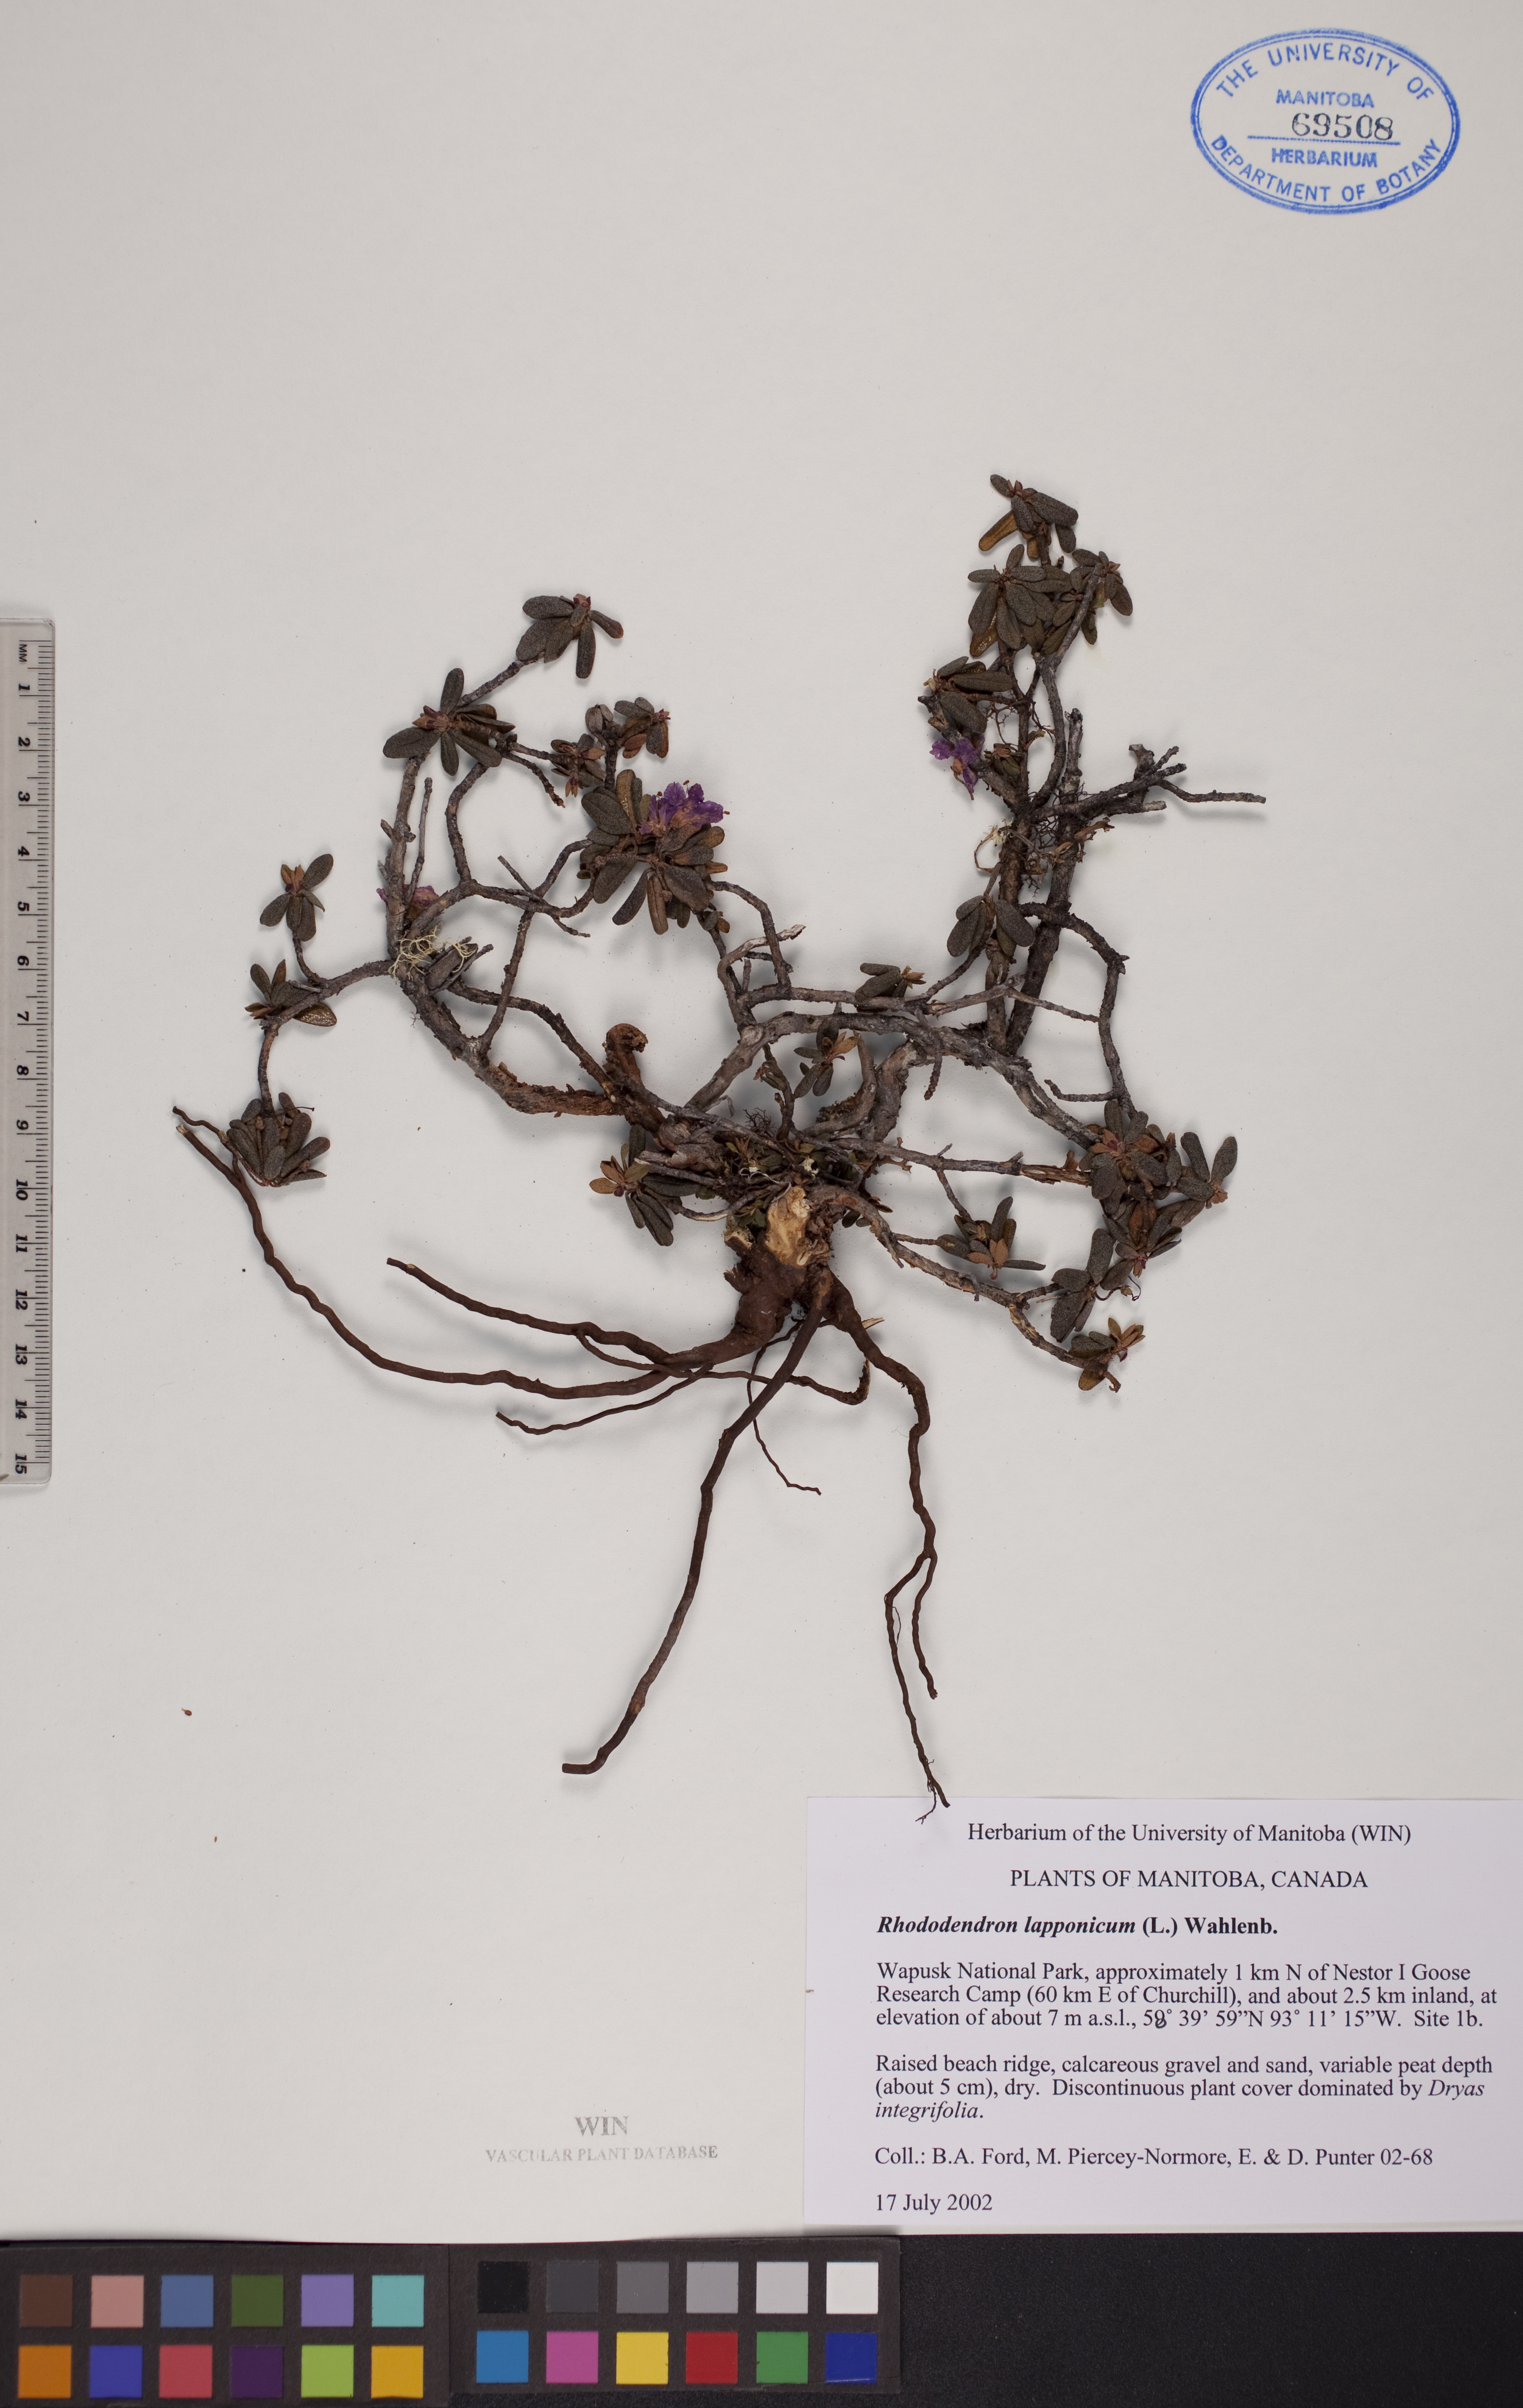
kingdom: Plantae
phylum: Tracheophyta
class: Magnoliopsida
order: Ericales
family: Ericaceae
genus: Rhododendron
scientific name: Rhododendron lapponicum
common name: Lapland rhododendron
